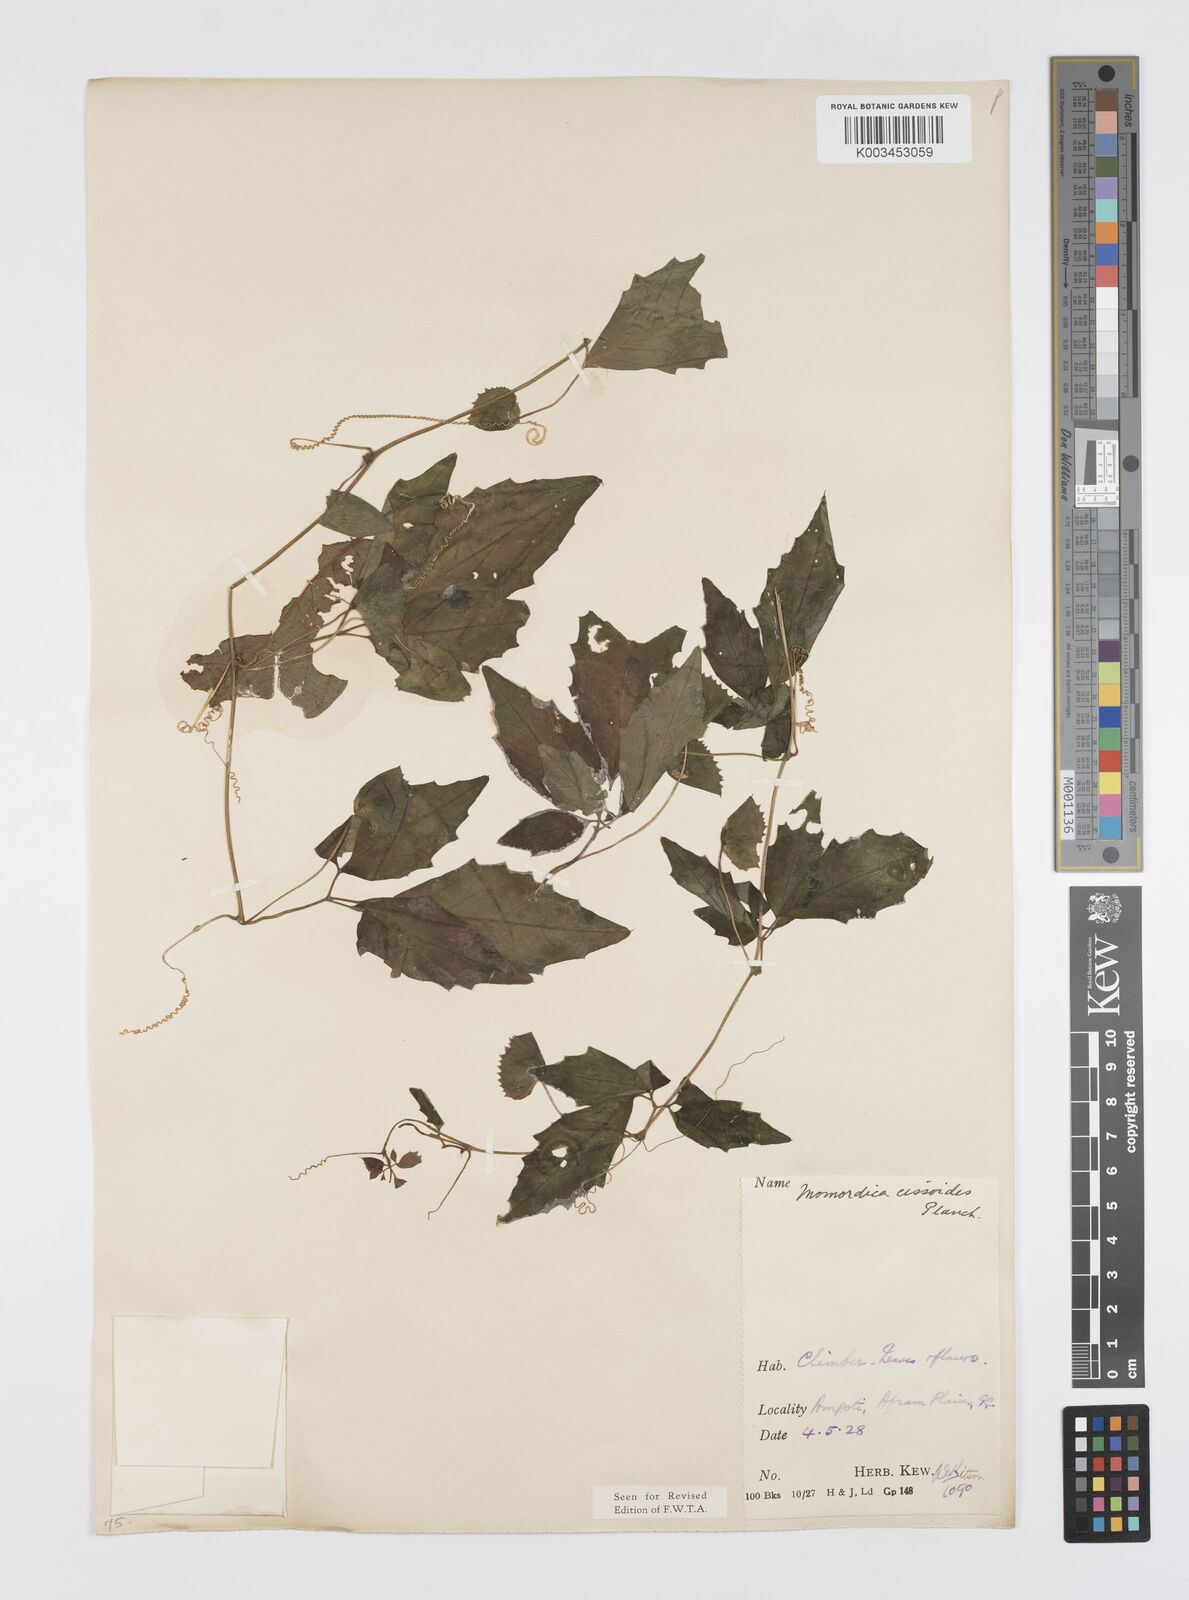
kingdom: Plantae
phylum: Tracheophyta
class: Magnoliopsida
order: Cucurbitales
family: Cucurbitaceae
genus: Momordica
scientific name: Momordica cissoides
